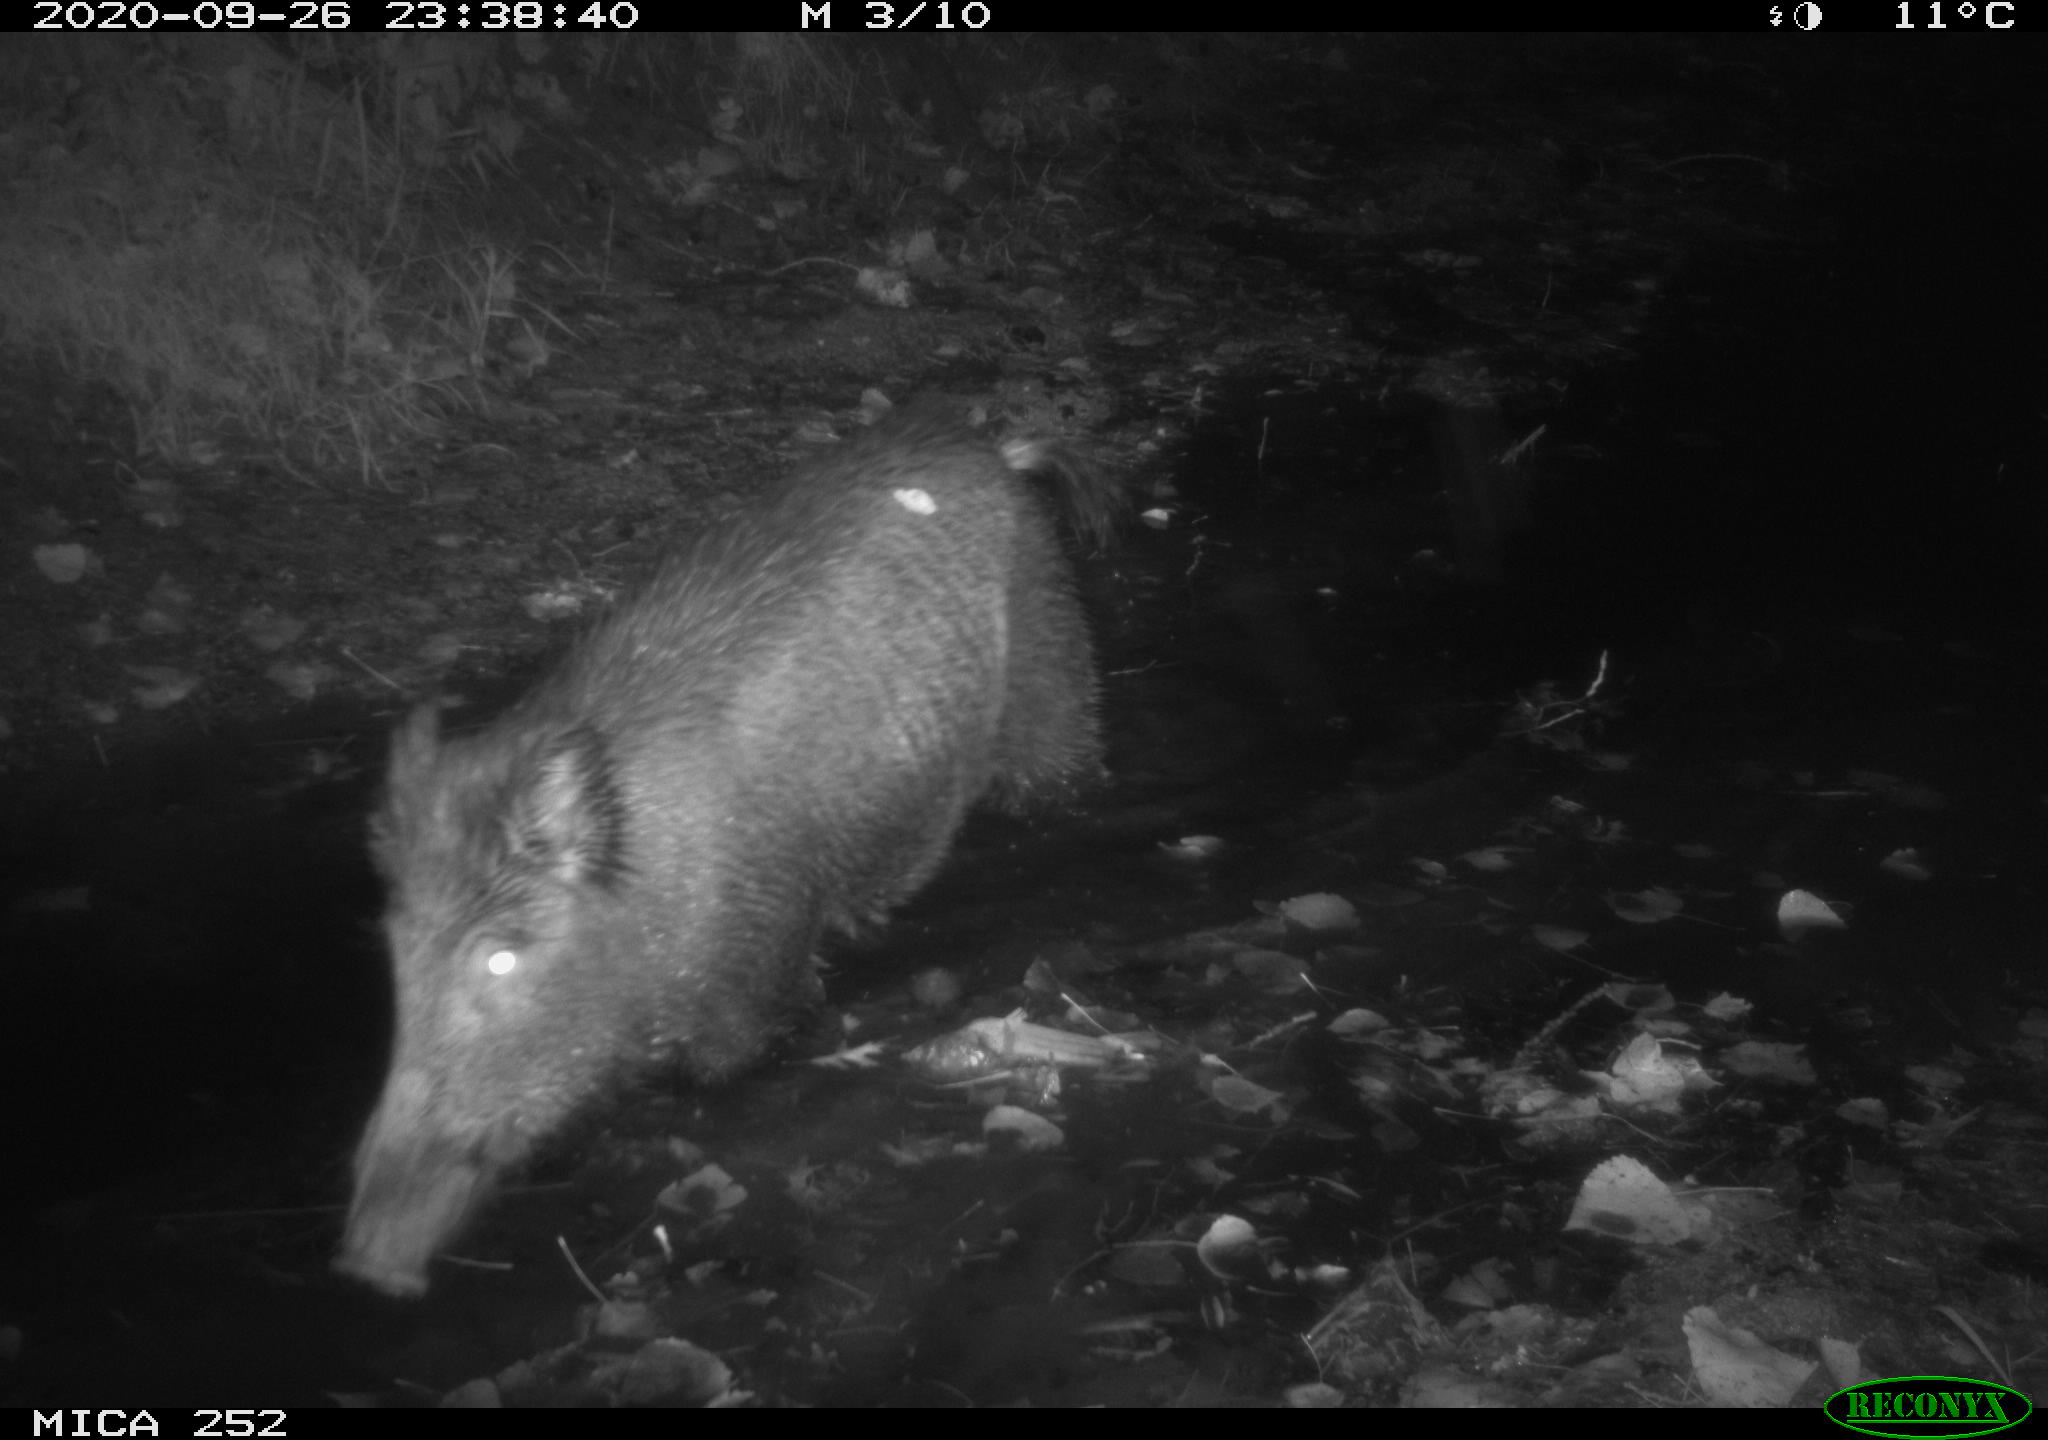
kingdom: Animalia
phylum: Chordata
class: Mammalia
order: Artiodactyla
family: Suidae
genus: Sus
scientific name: Sus scrofa
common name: Wild boar
